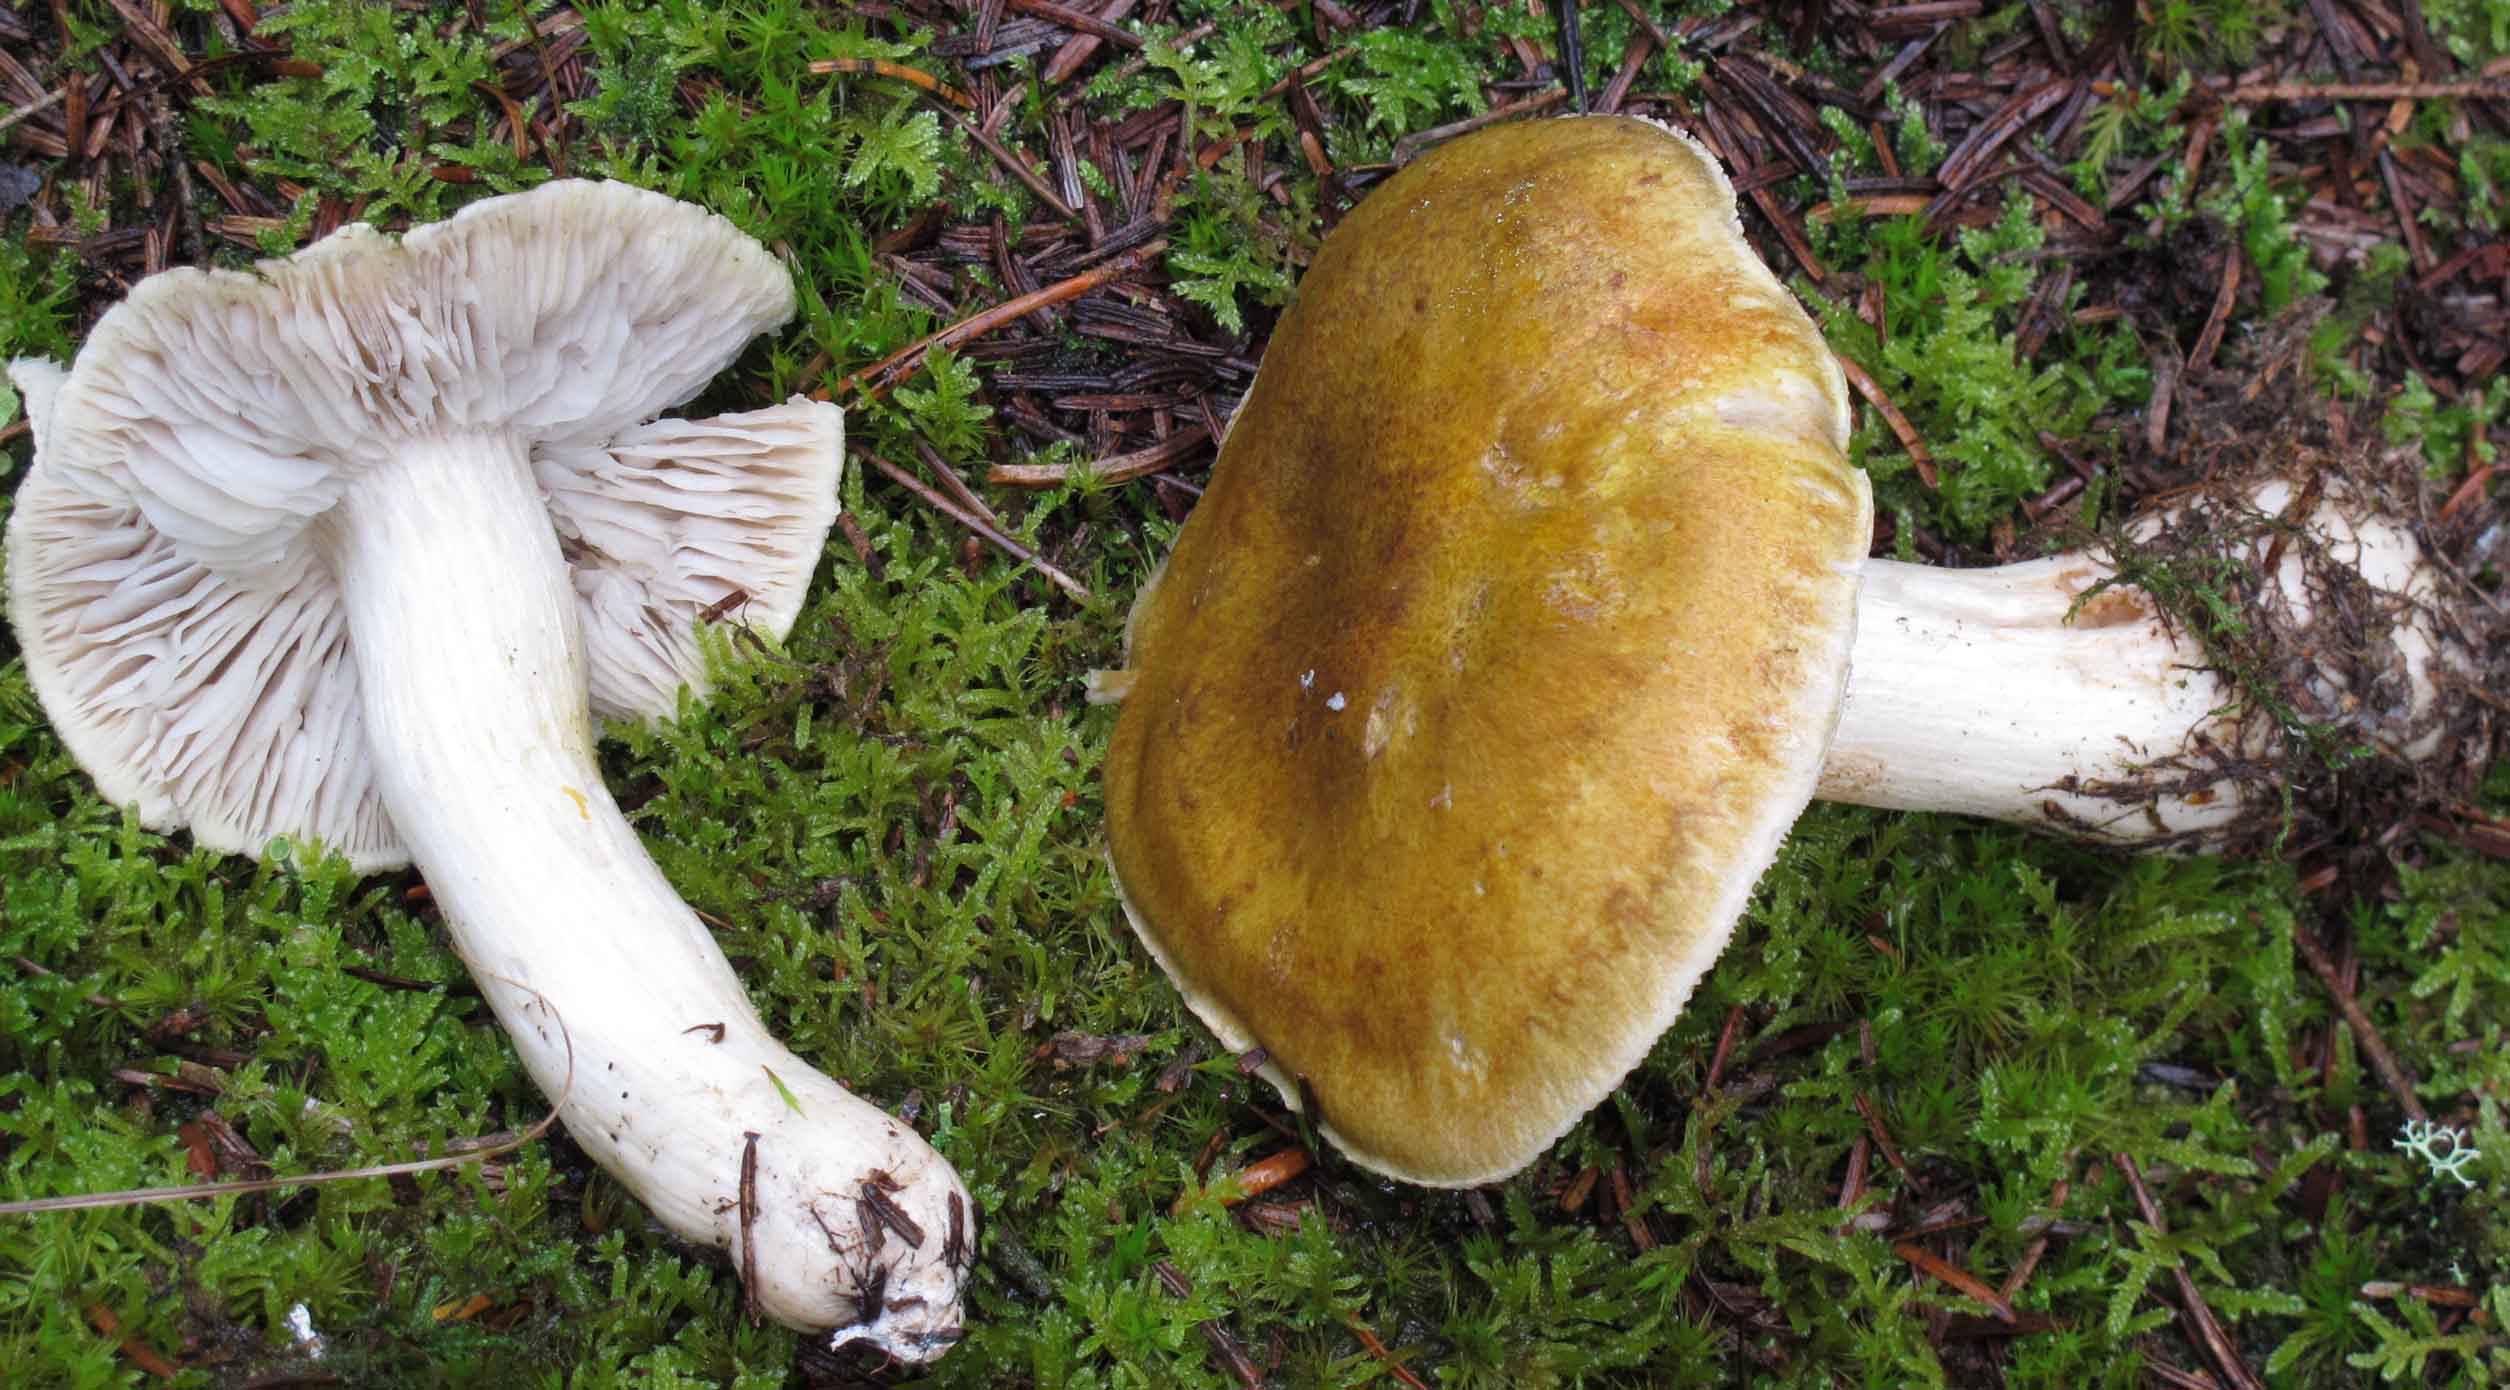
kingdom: Fungi
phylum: Basidiomycota
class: Agaricomycetes
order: Agaricales
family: Tricholomataceae
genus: Tricholoma
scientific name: Tricholoma arvernense
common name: kantet ridderhat
